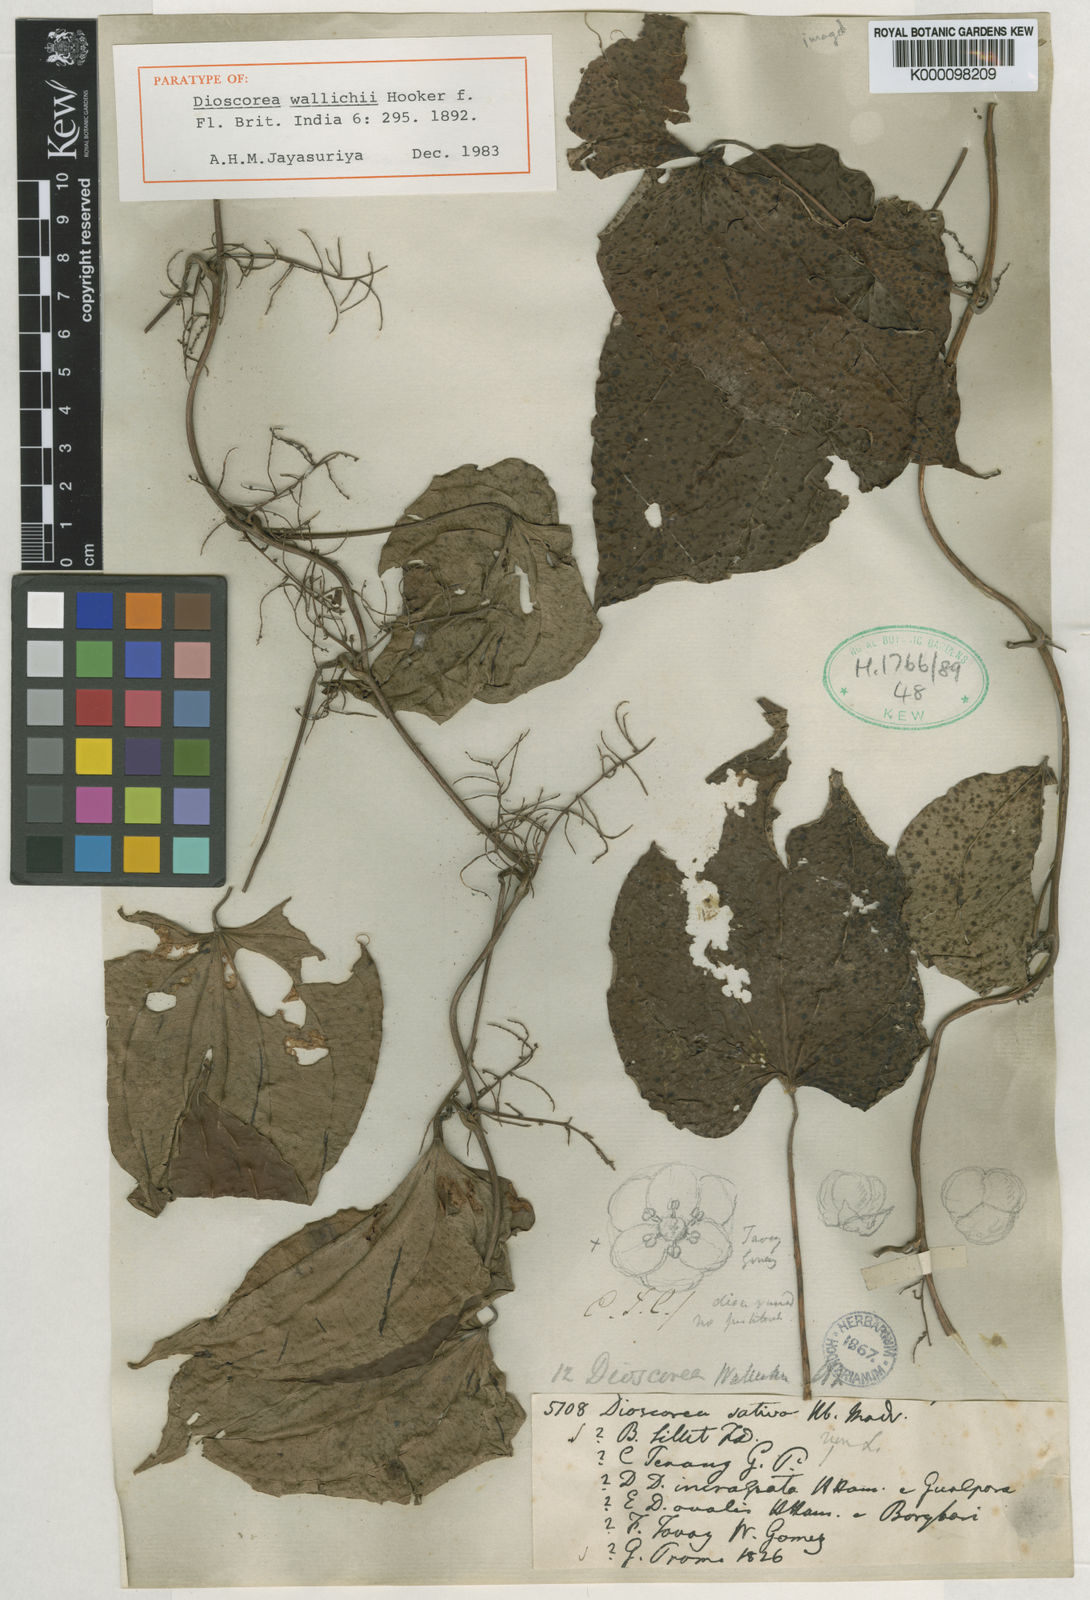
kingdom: Plantae
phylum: Tracheophyta
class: Liliopsida
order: Dioscoreales
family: Dioscoreaceae
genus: Dioscorea
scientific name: Dioscorea wallichii
